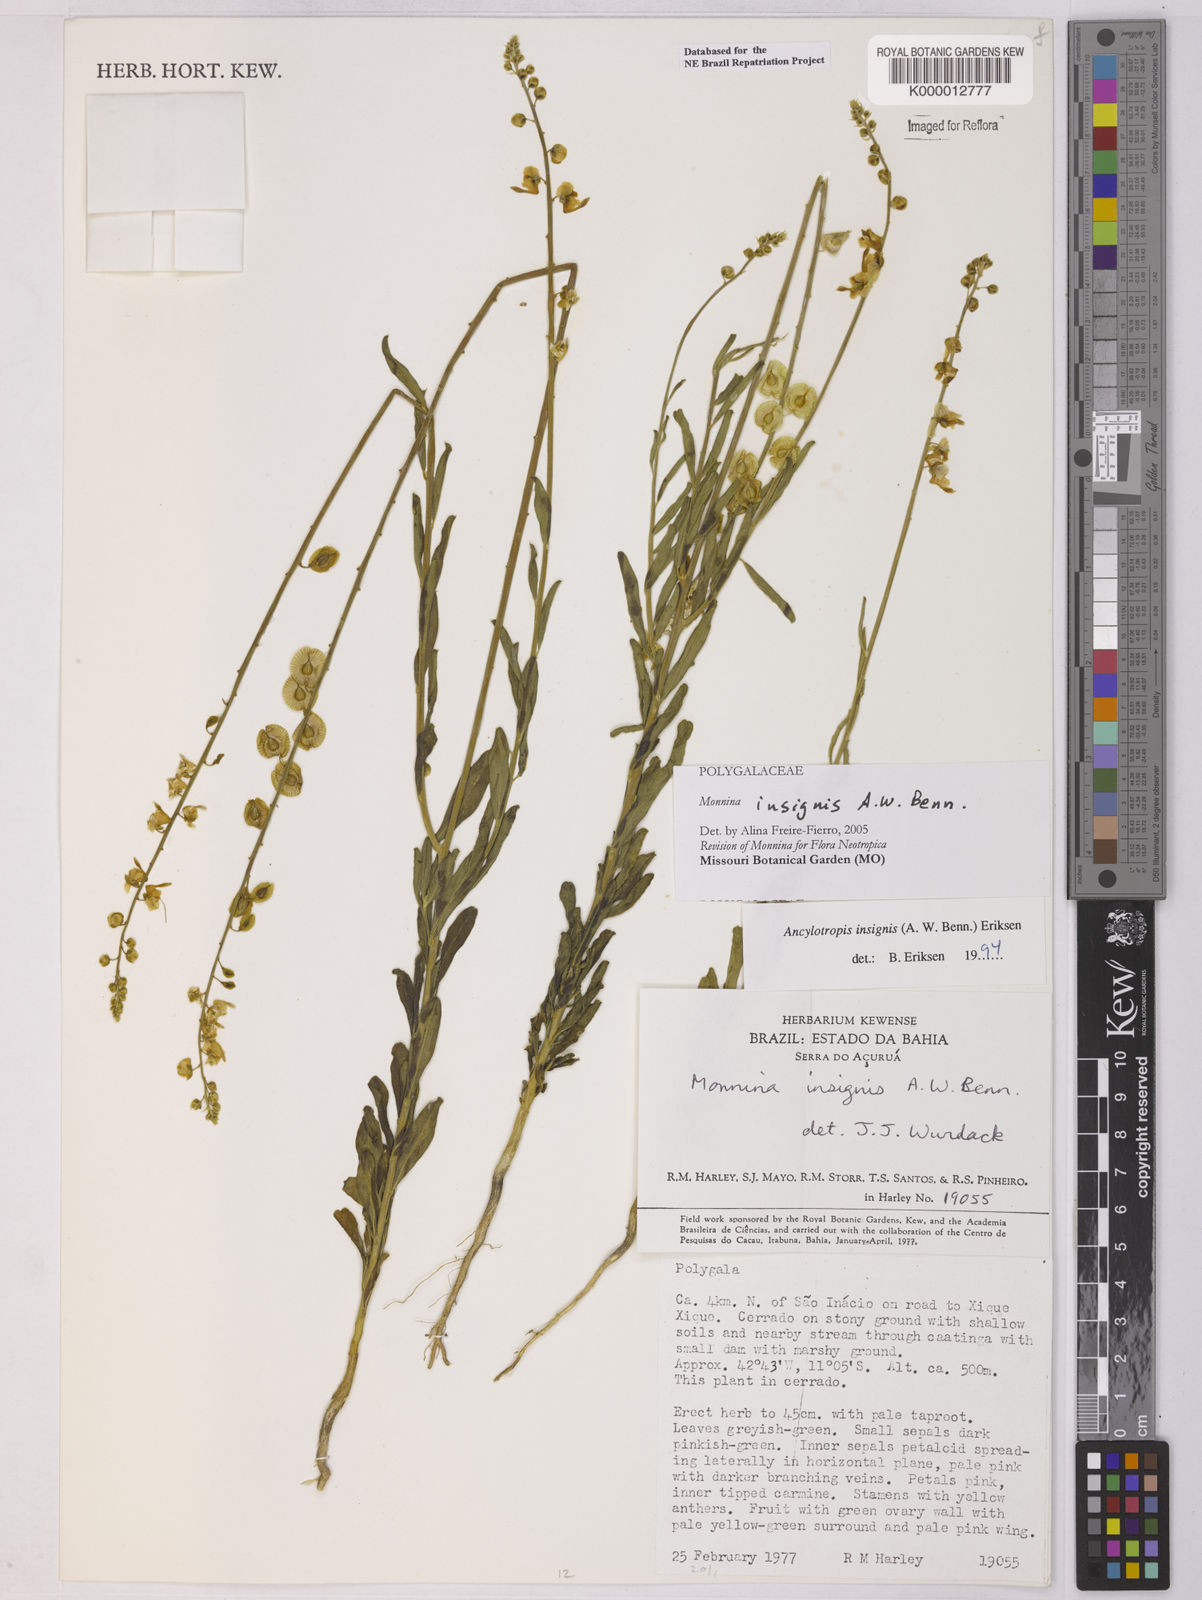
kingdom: Plantae
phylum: Tracheophyta
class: Magnoliopsida
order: Fabales
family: Polygalaceae
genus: Ancylotropis
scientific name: Ancylotropis insignis
